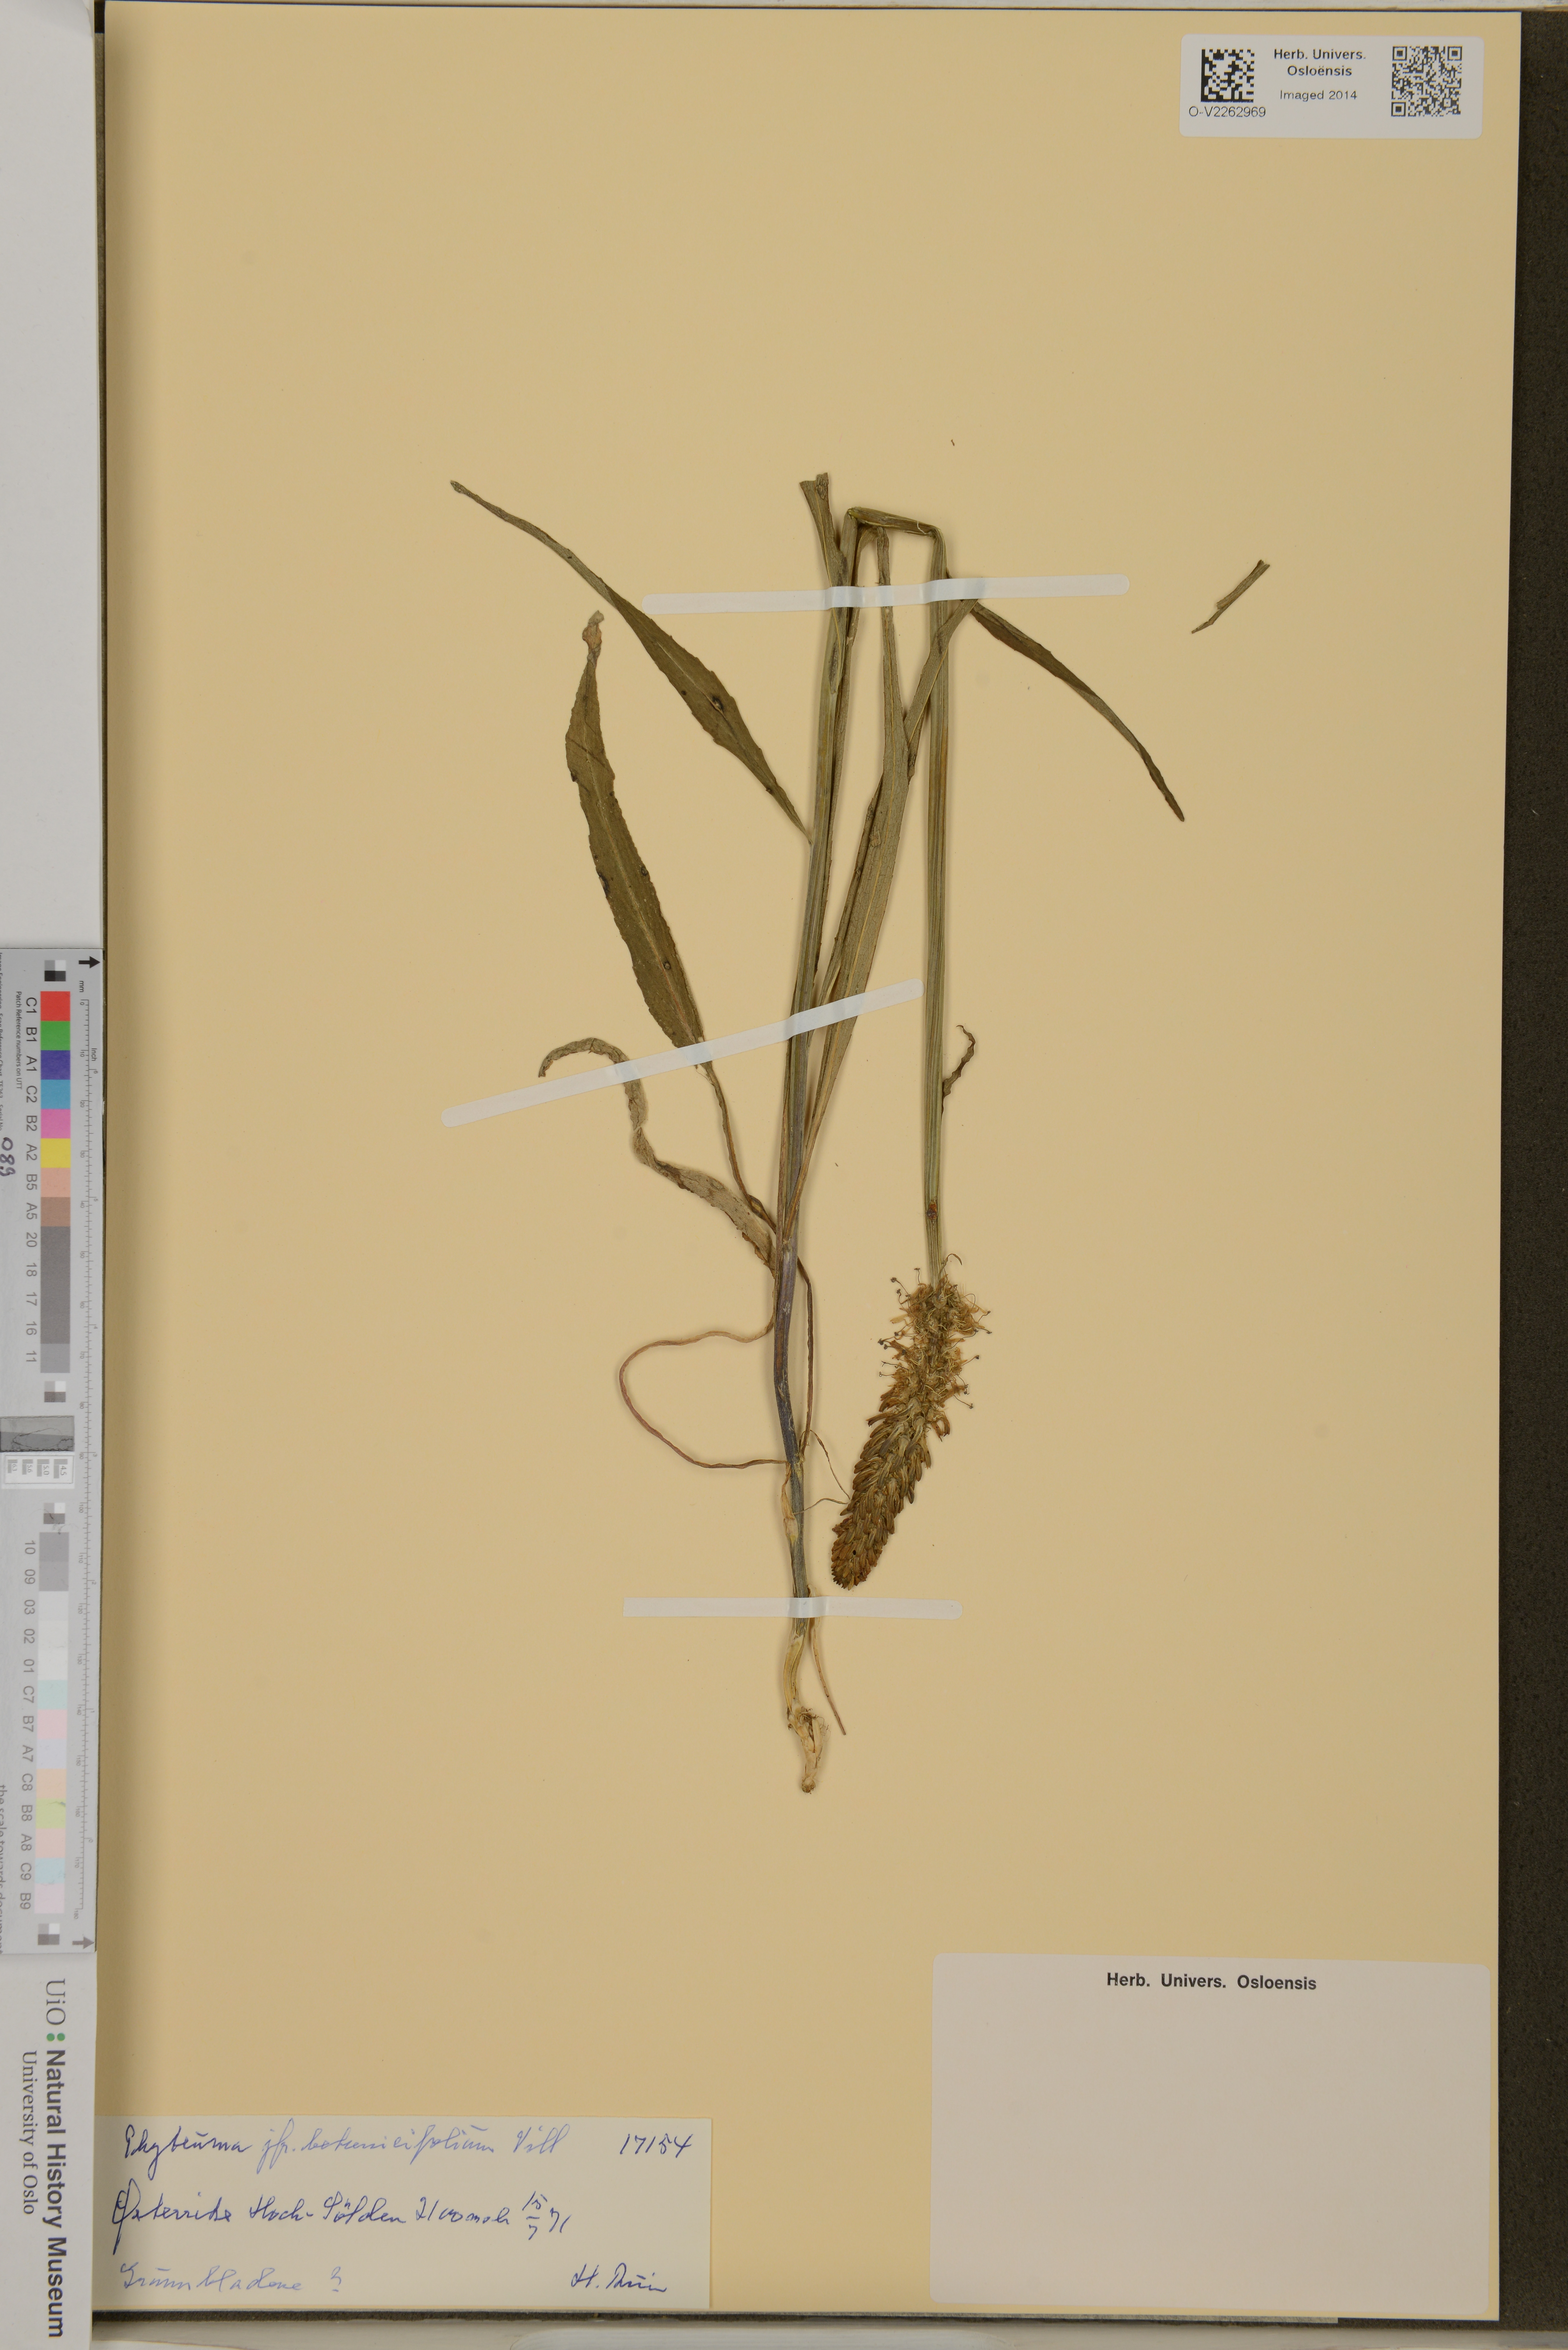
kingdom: Plantae
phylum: Tracheophyta
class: Magnoliopsida
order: Asterales
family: Campanulaceae
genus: Phyteuma
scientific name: Phyteuma betonicifolium
